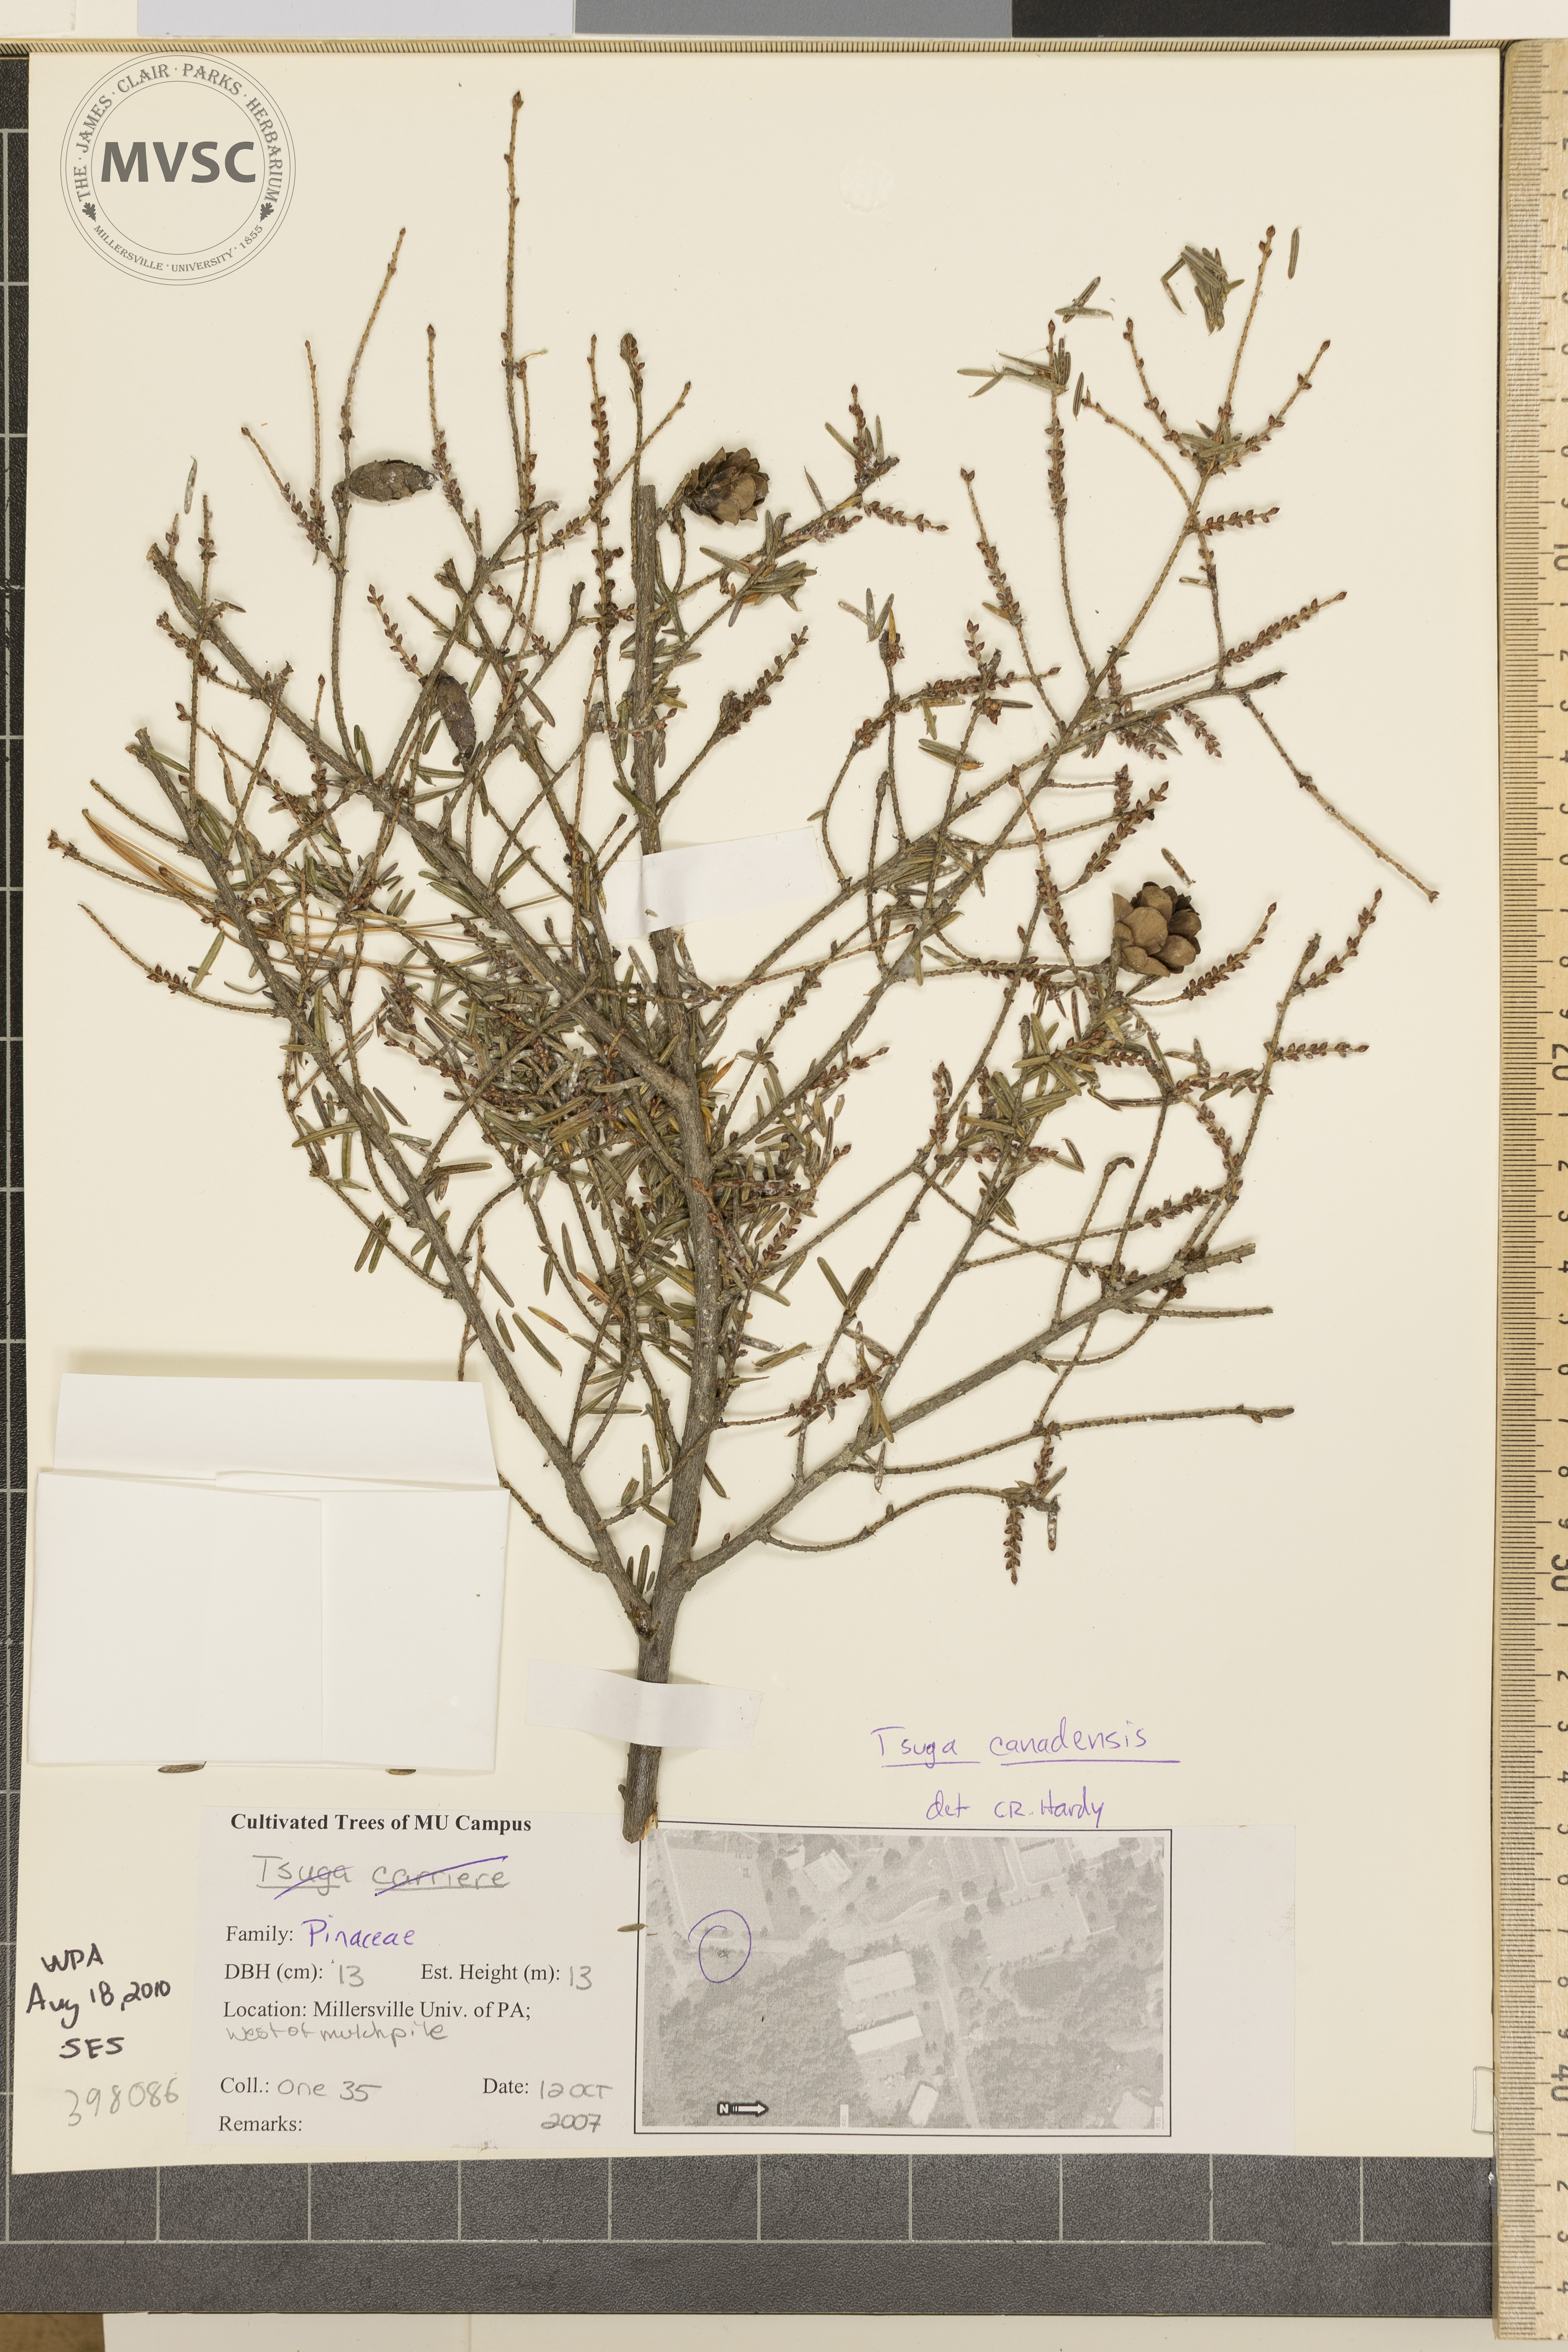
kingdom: Plantae
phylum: Tracheophyta
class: Pinopsida
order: Pinales
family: Pinaceae
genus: Tsuga
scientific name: Tsuga canadensis
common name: Canada hemlock
